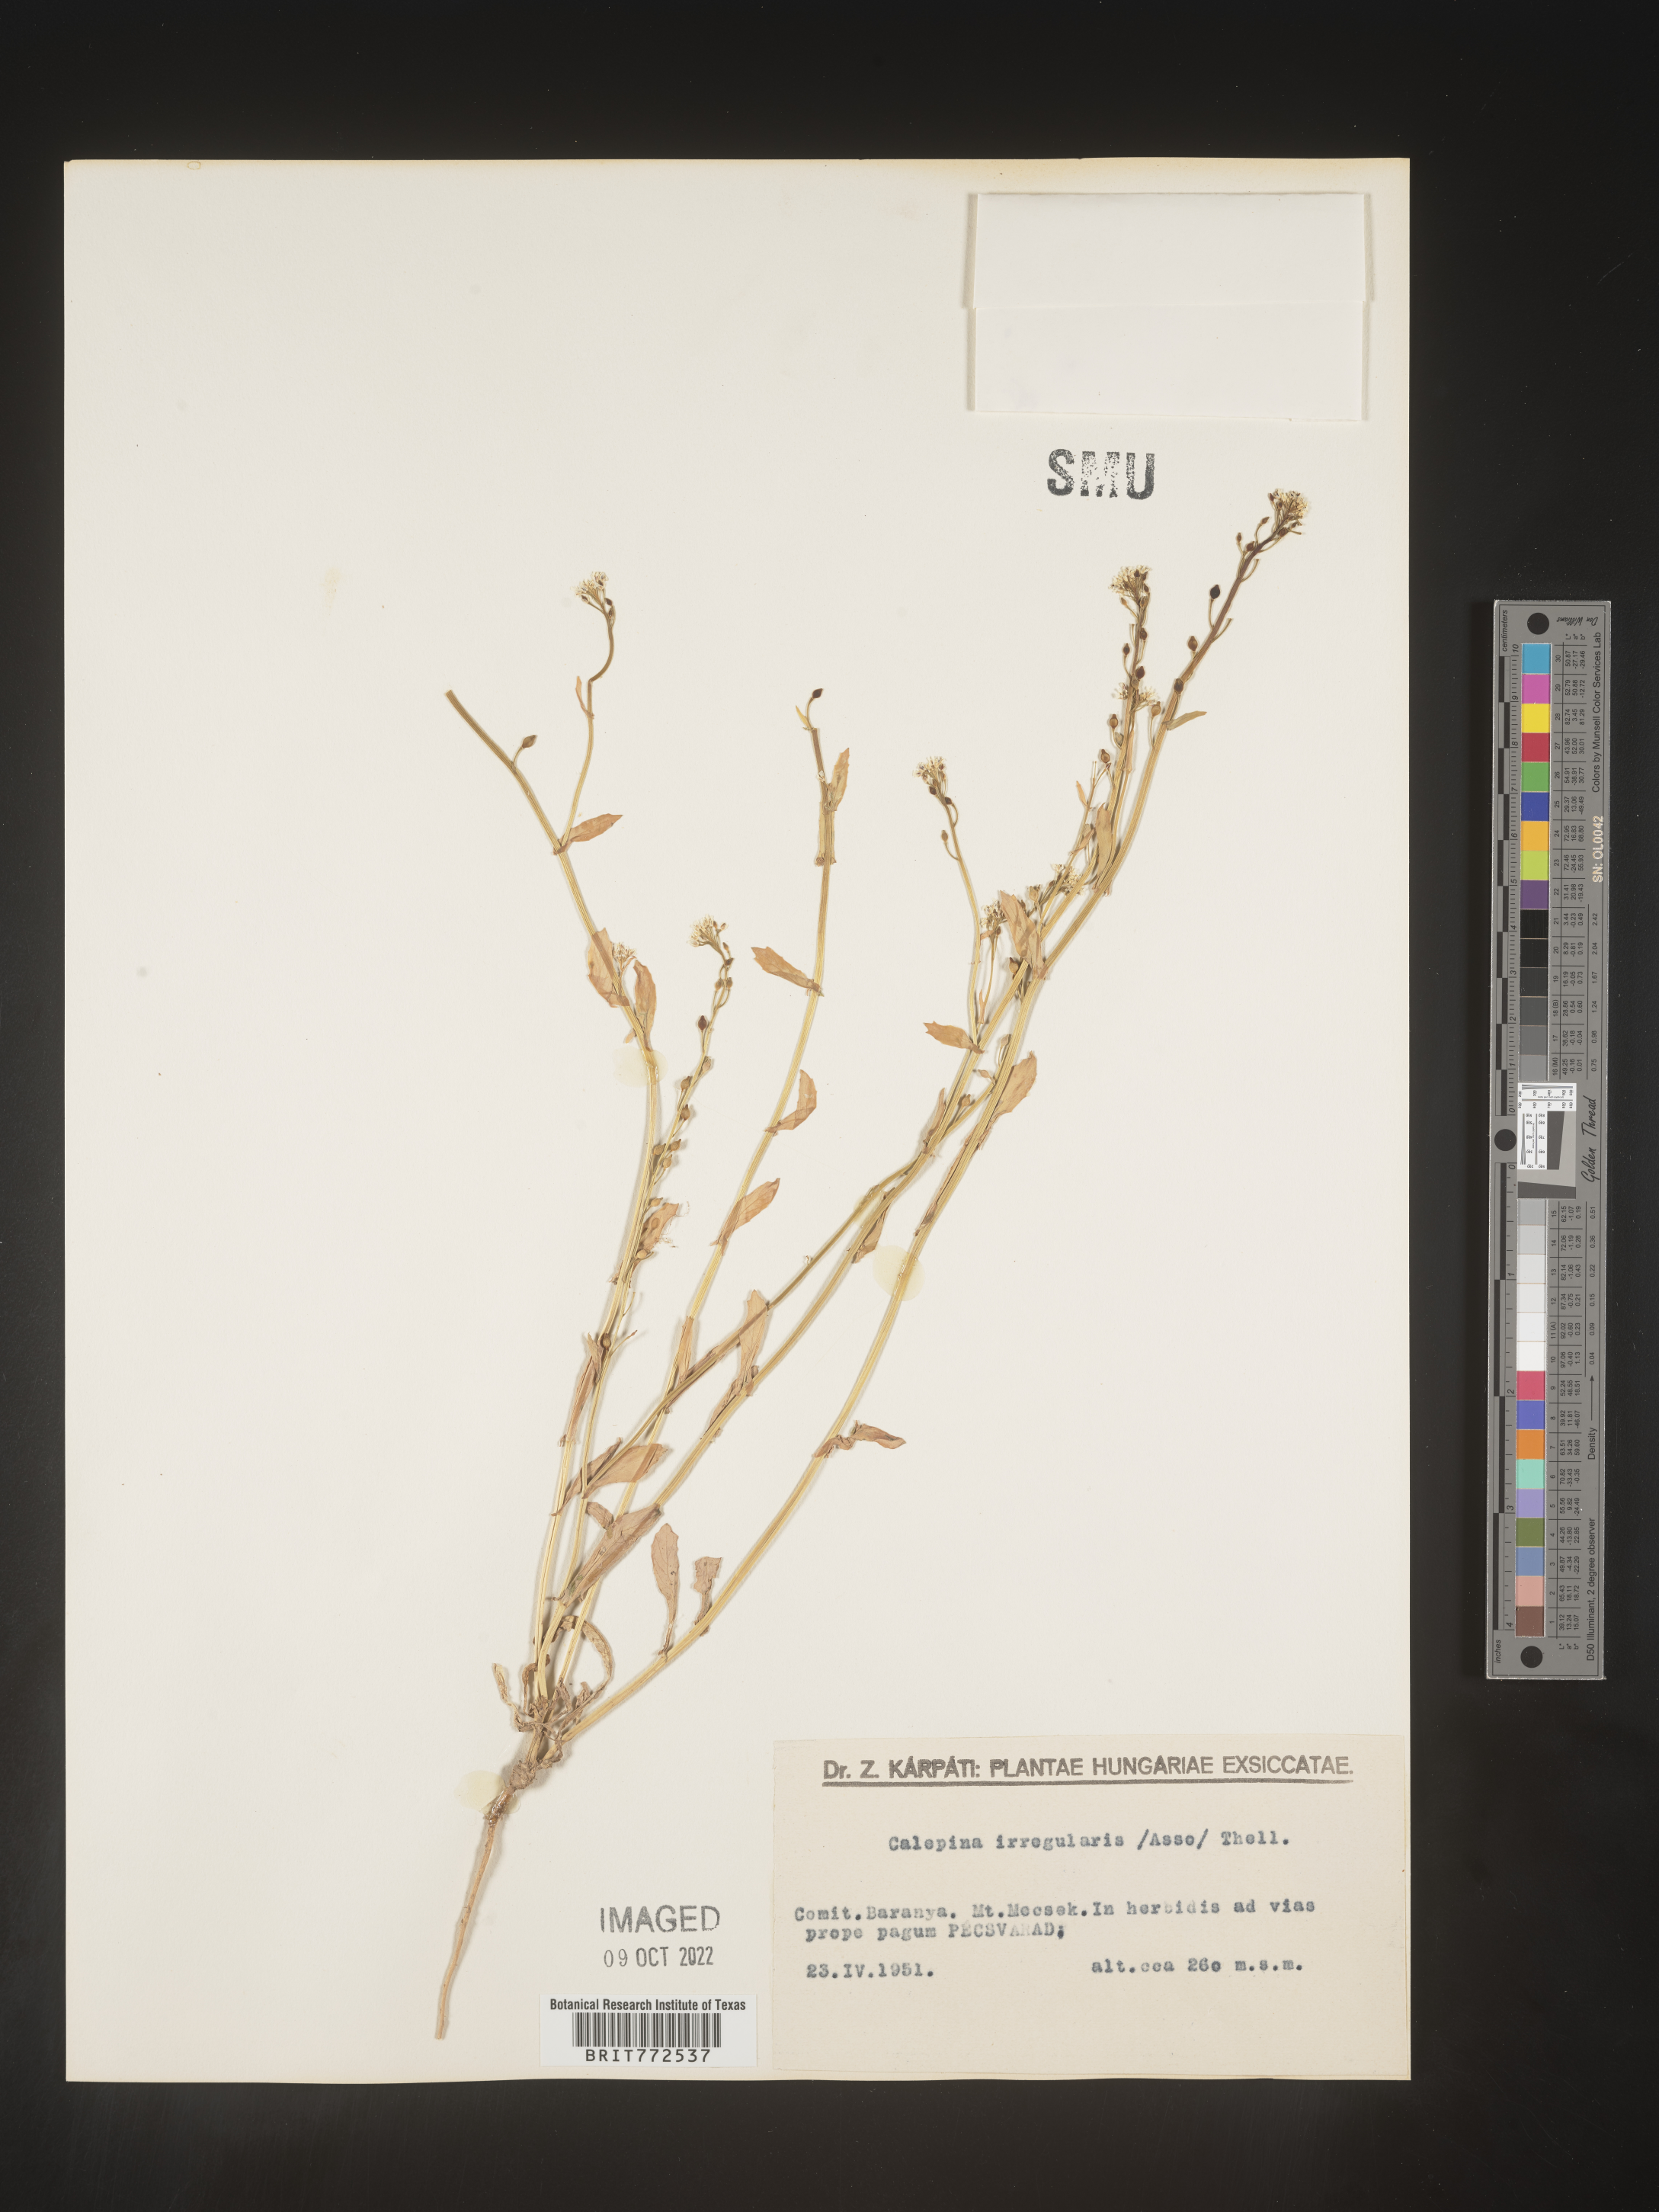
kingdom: Plantae
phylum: Tracheophyta
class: Magnoliopsida
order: Brassicales
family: Brassicaceae
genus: Calepina
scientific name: Calepina
